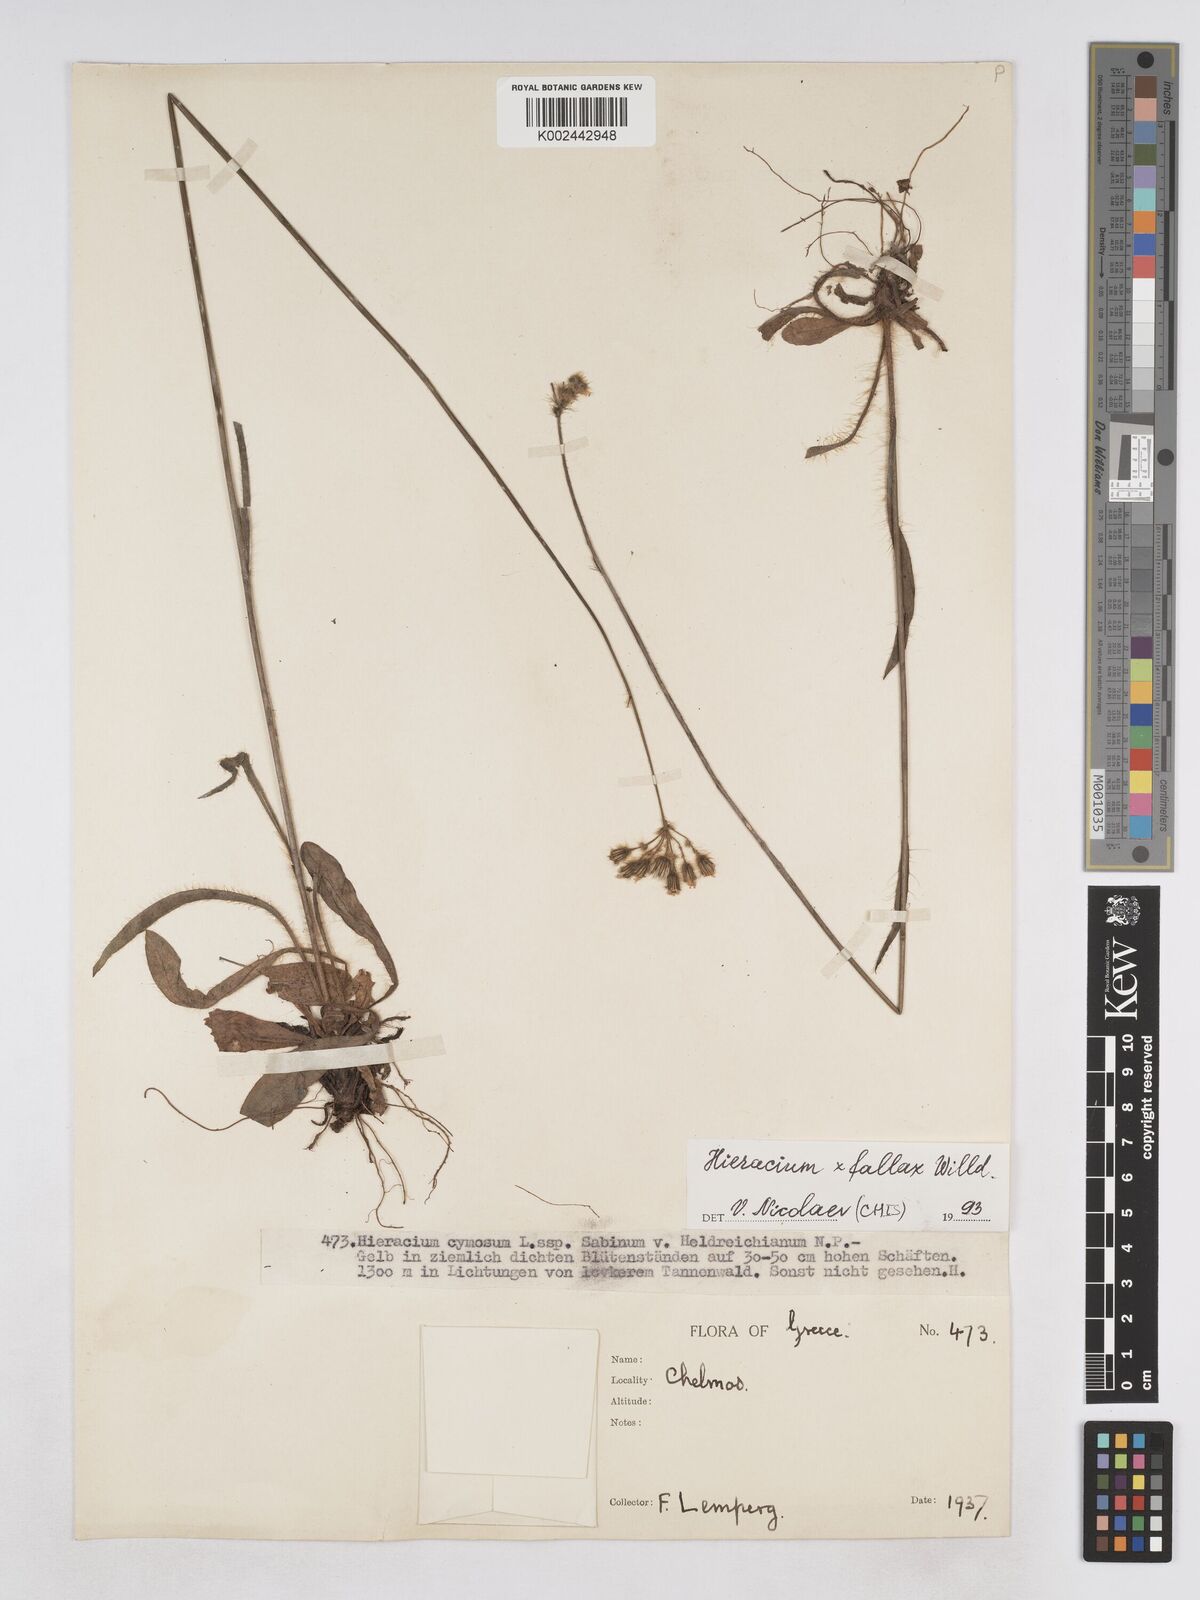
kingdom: Plantae
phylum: Tracheophyta
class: Magnoliopsida
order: Asterales
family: Asteraceae
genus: Pilosella
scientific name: Pilosella fallax
